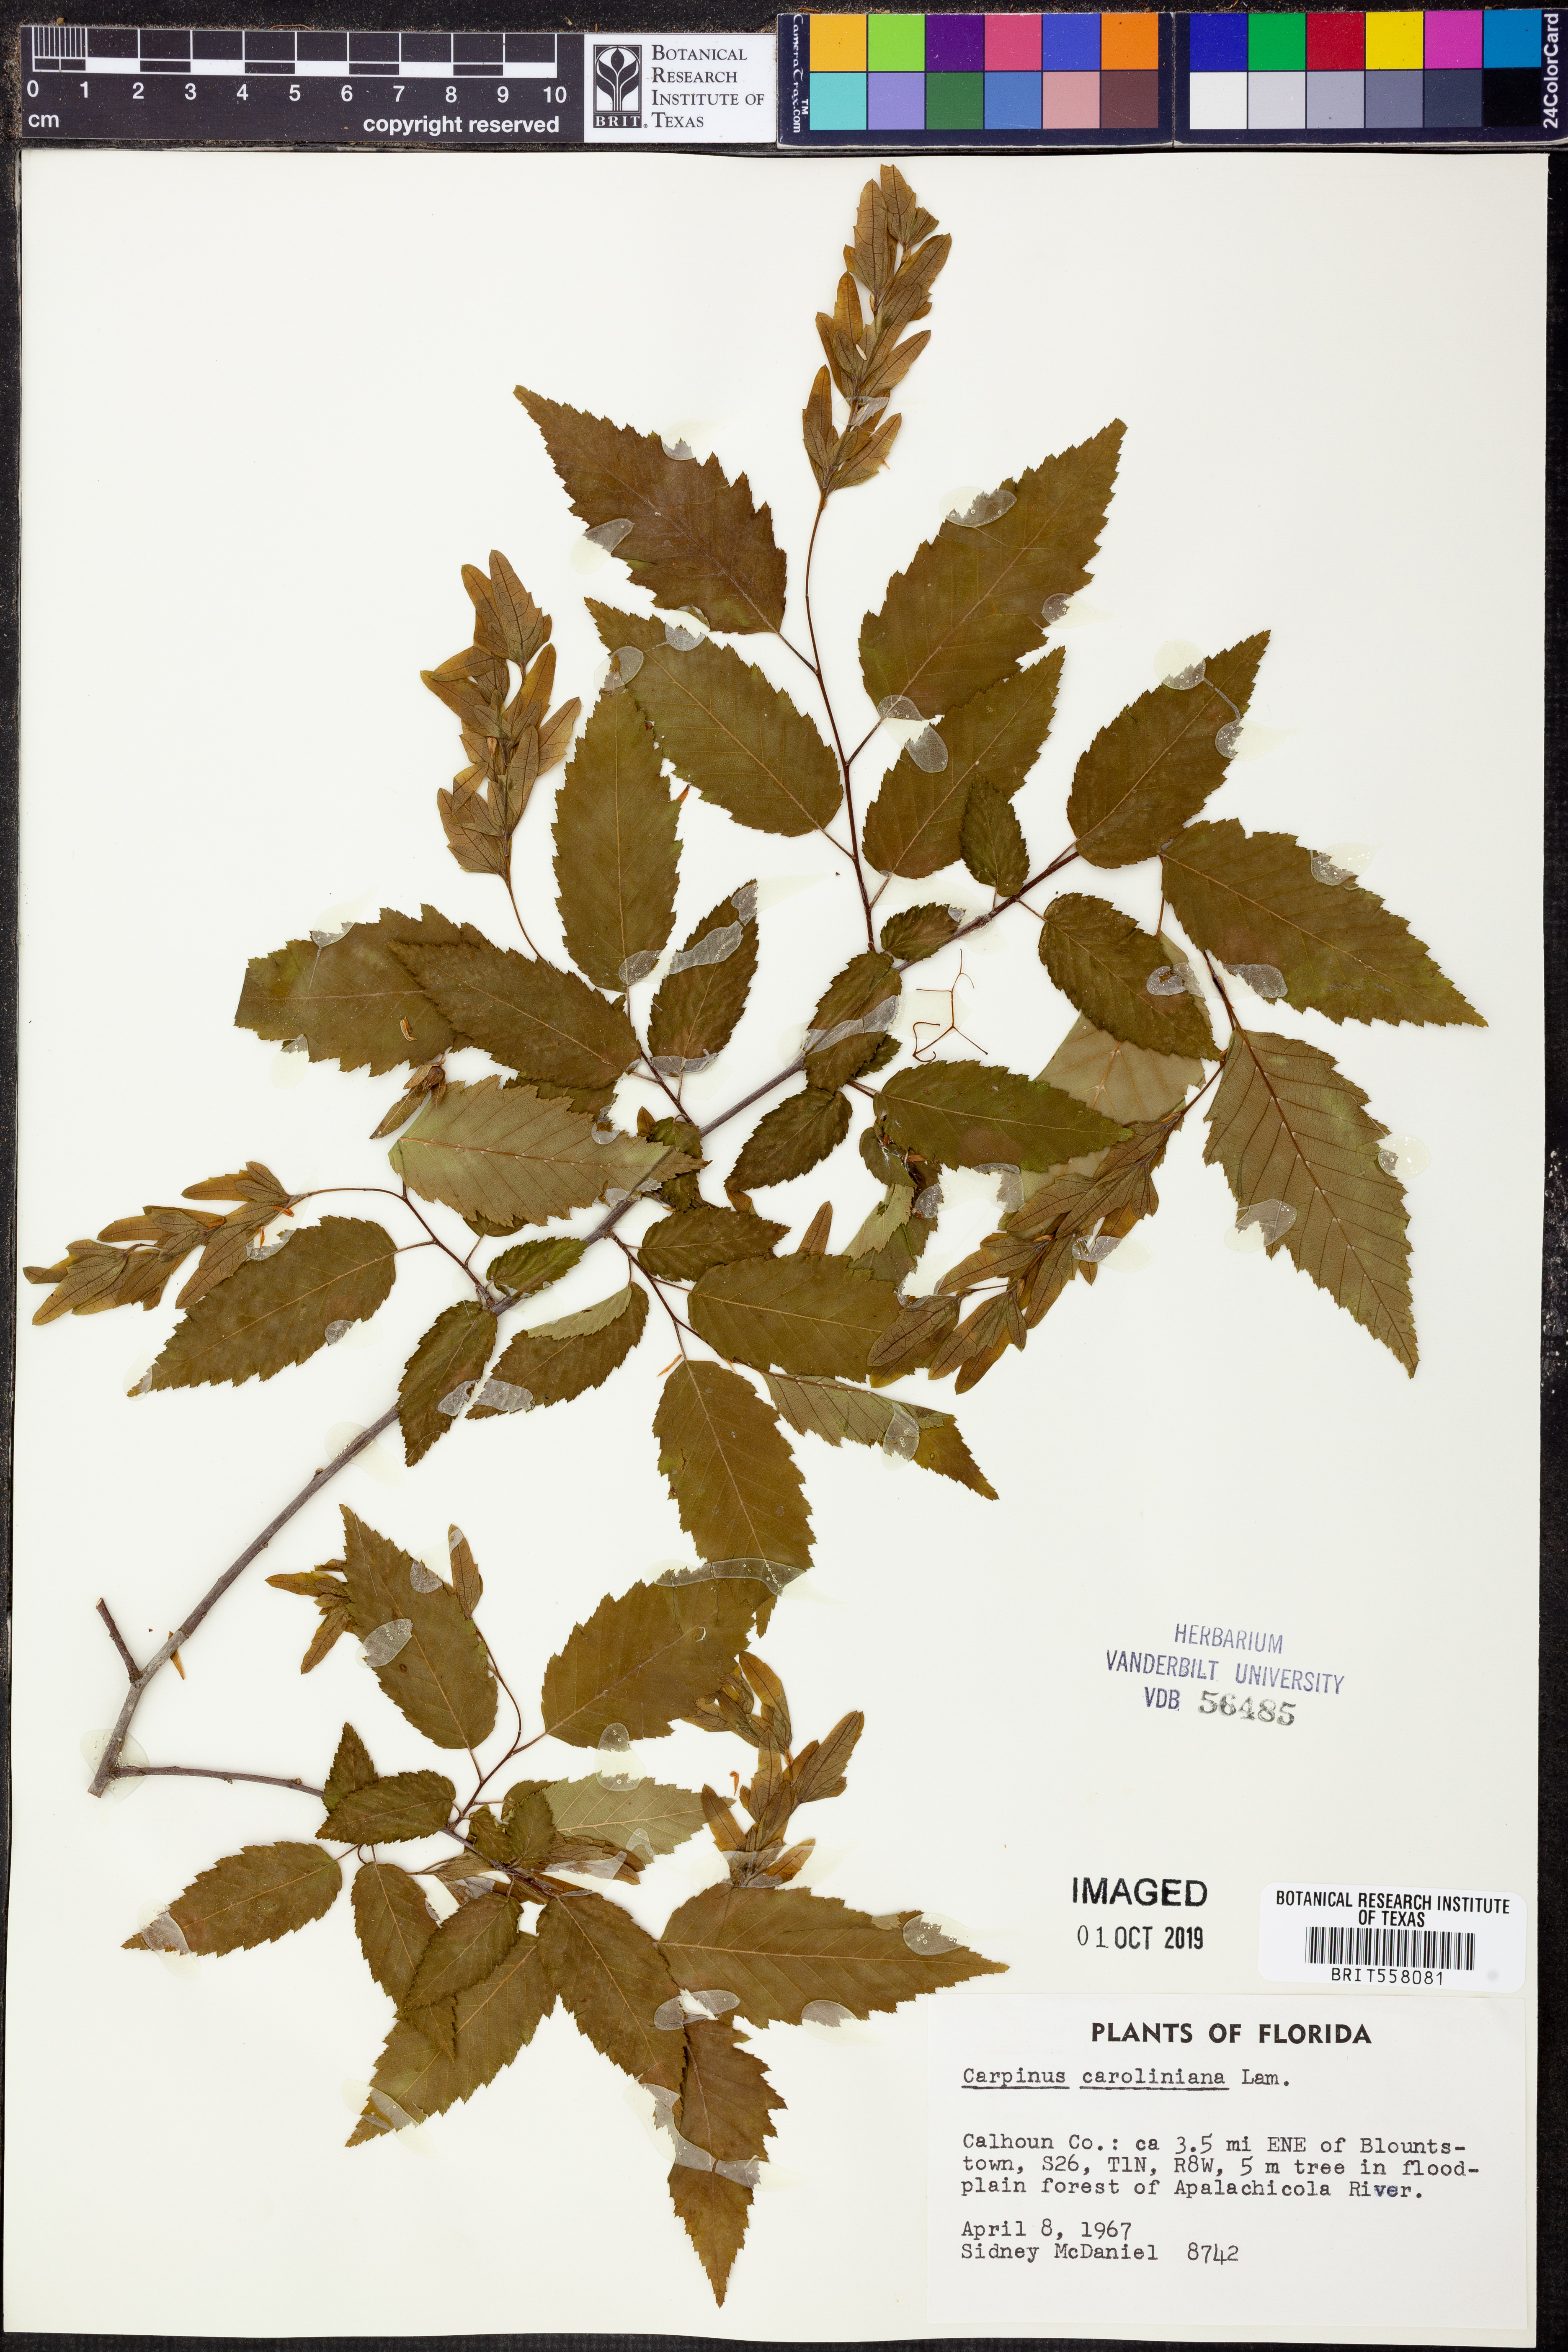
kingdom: Plantae
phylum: Tracheophyta
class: Magnoliopsida
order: Fagales
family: Betulaceae
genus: Carpinus
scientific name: Carpinus caroliniana
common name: American hornbeam
